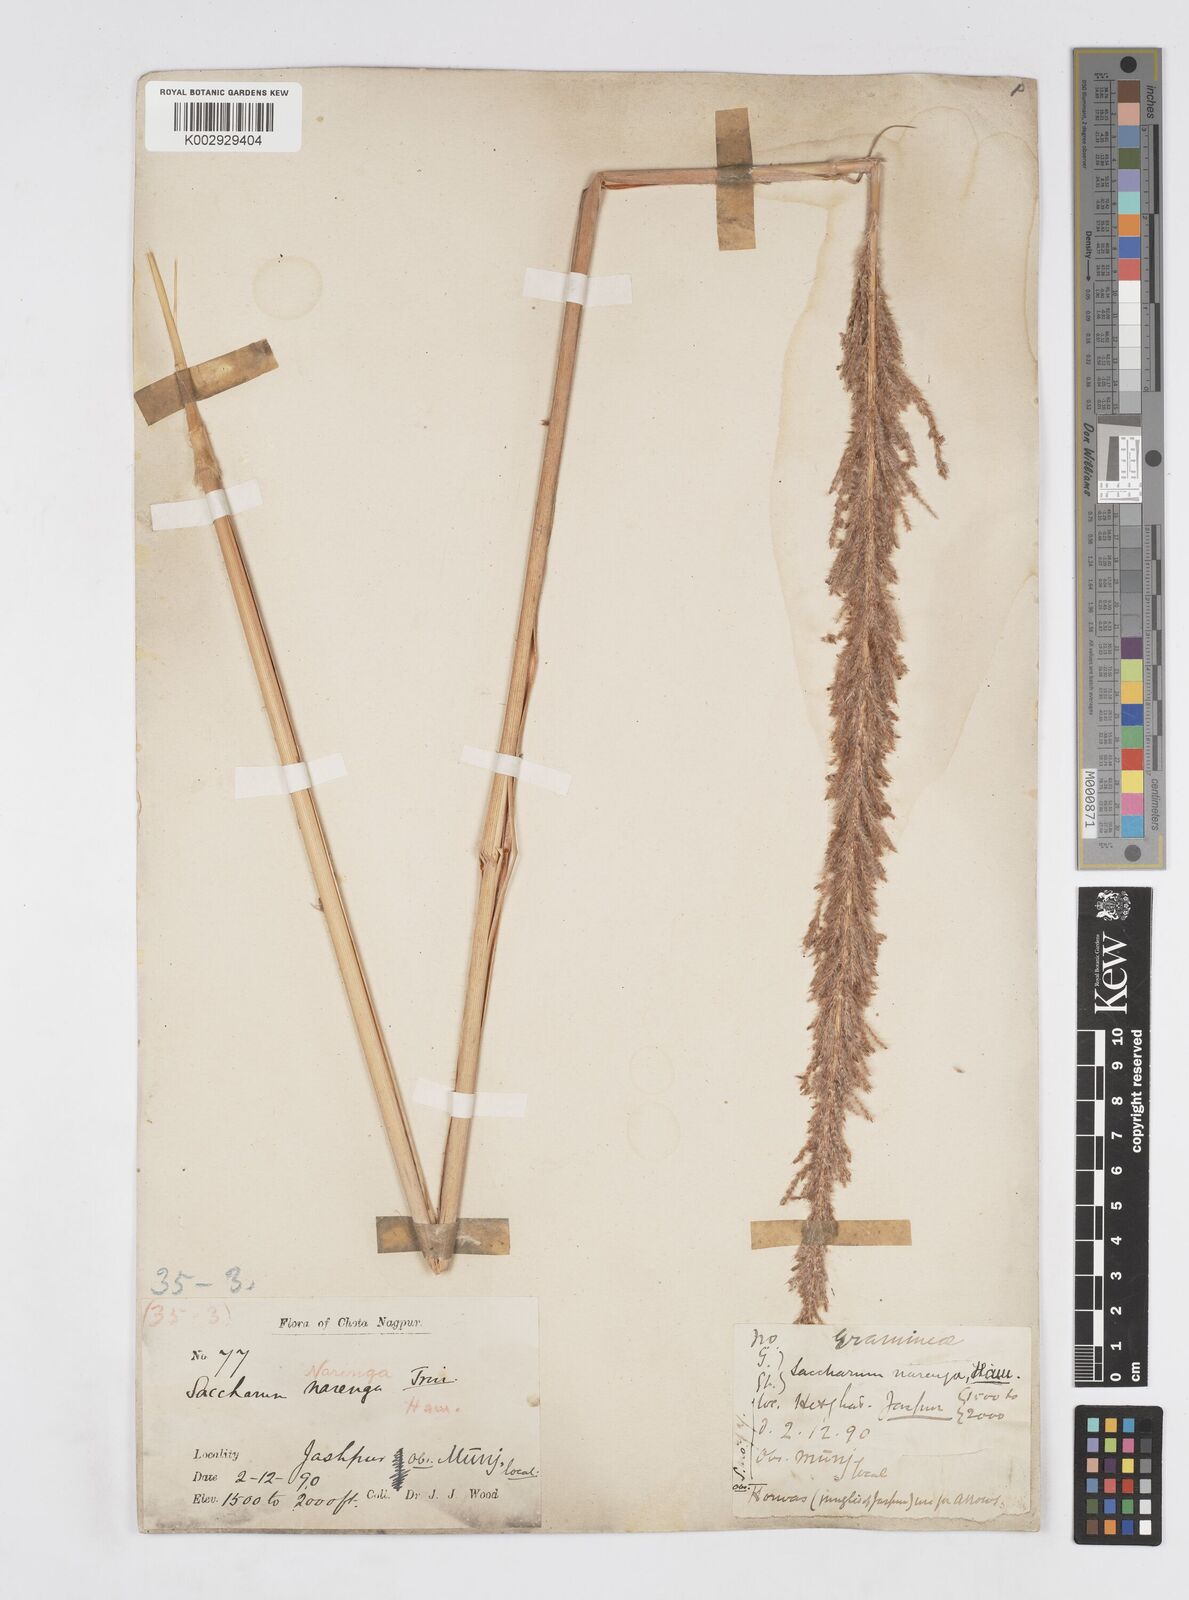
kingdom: Plantae
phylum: Tracheophyta
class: Liliopsida
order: Poales
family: Poaceae
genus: Narenga
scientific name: Narenga porphyrocoma
